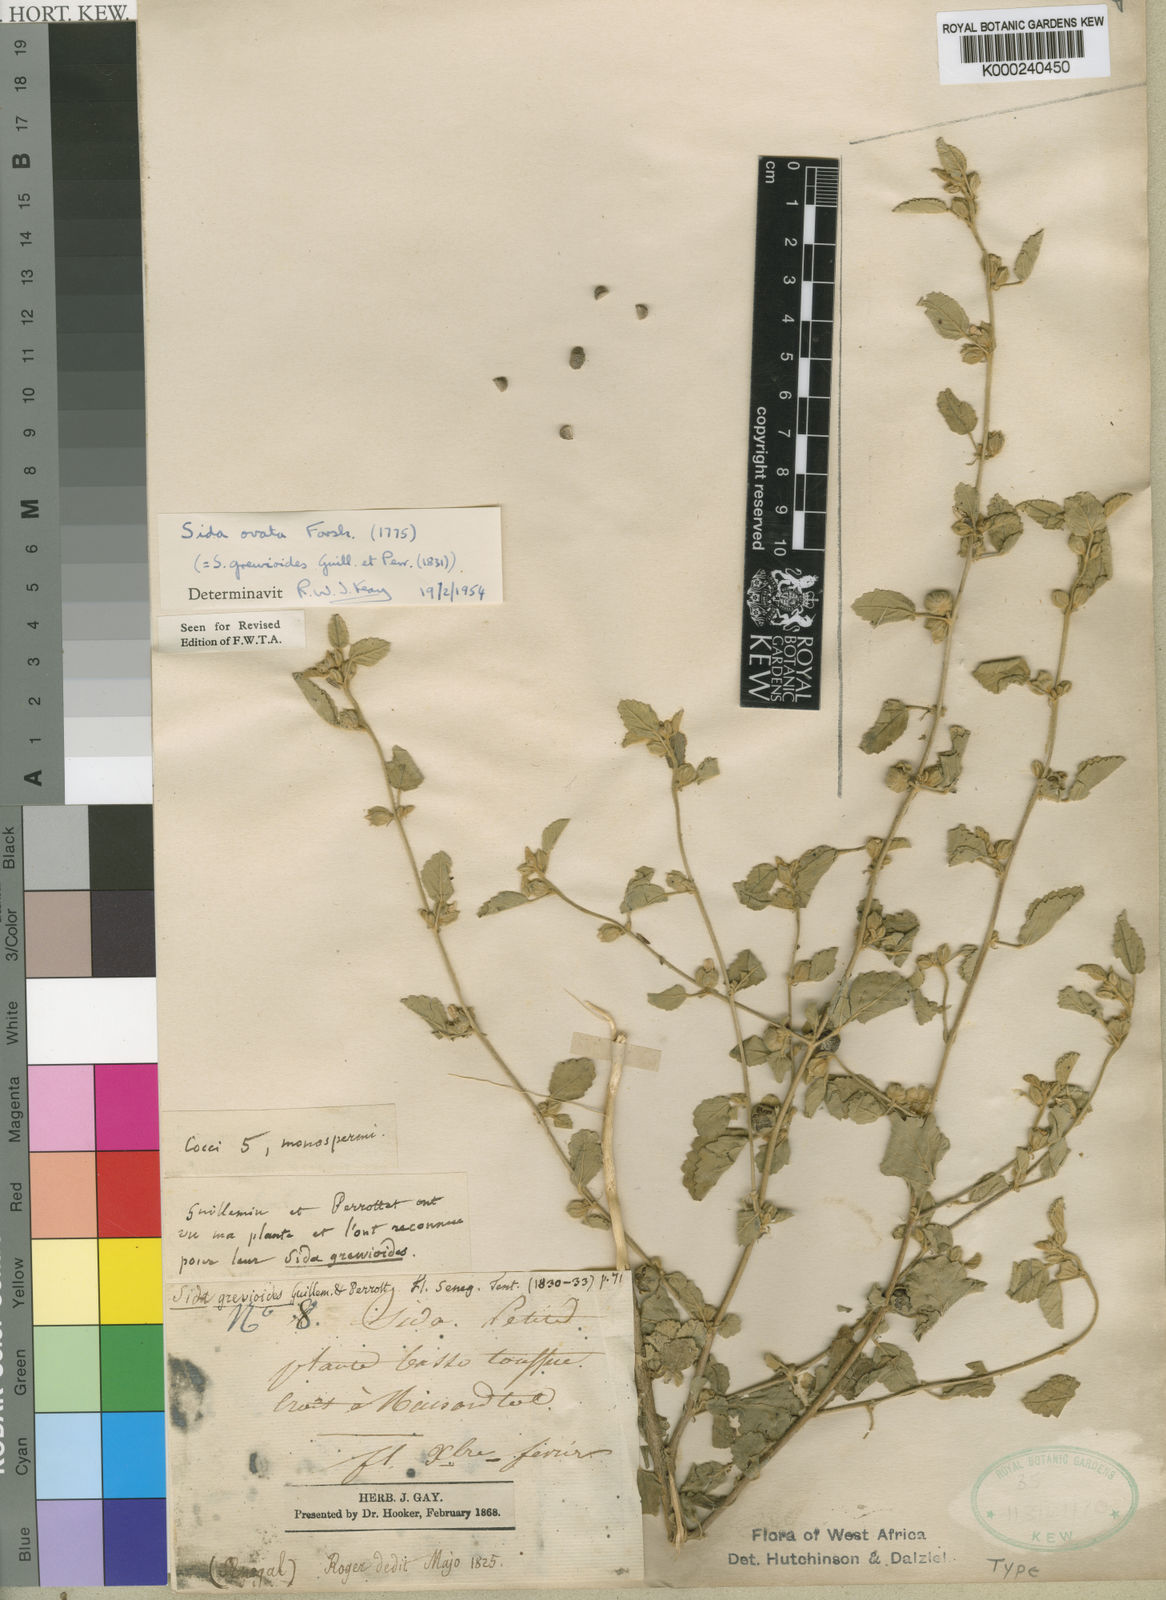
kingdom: Plantae
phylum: Tracheophyta
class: Magnoliopsida
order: Malvales
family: Malvaceae
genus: Sida
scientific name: Sida ovata
